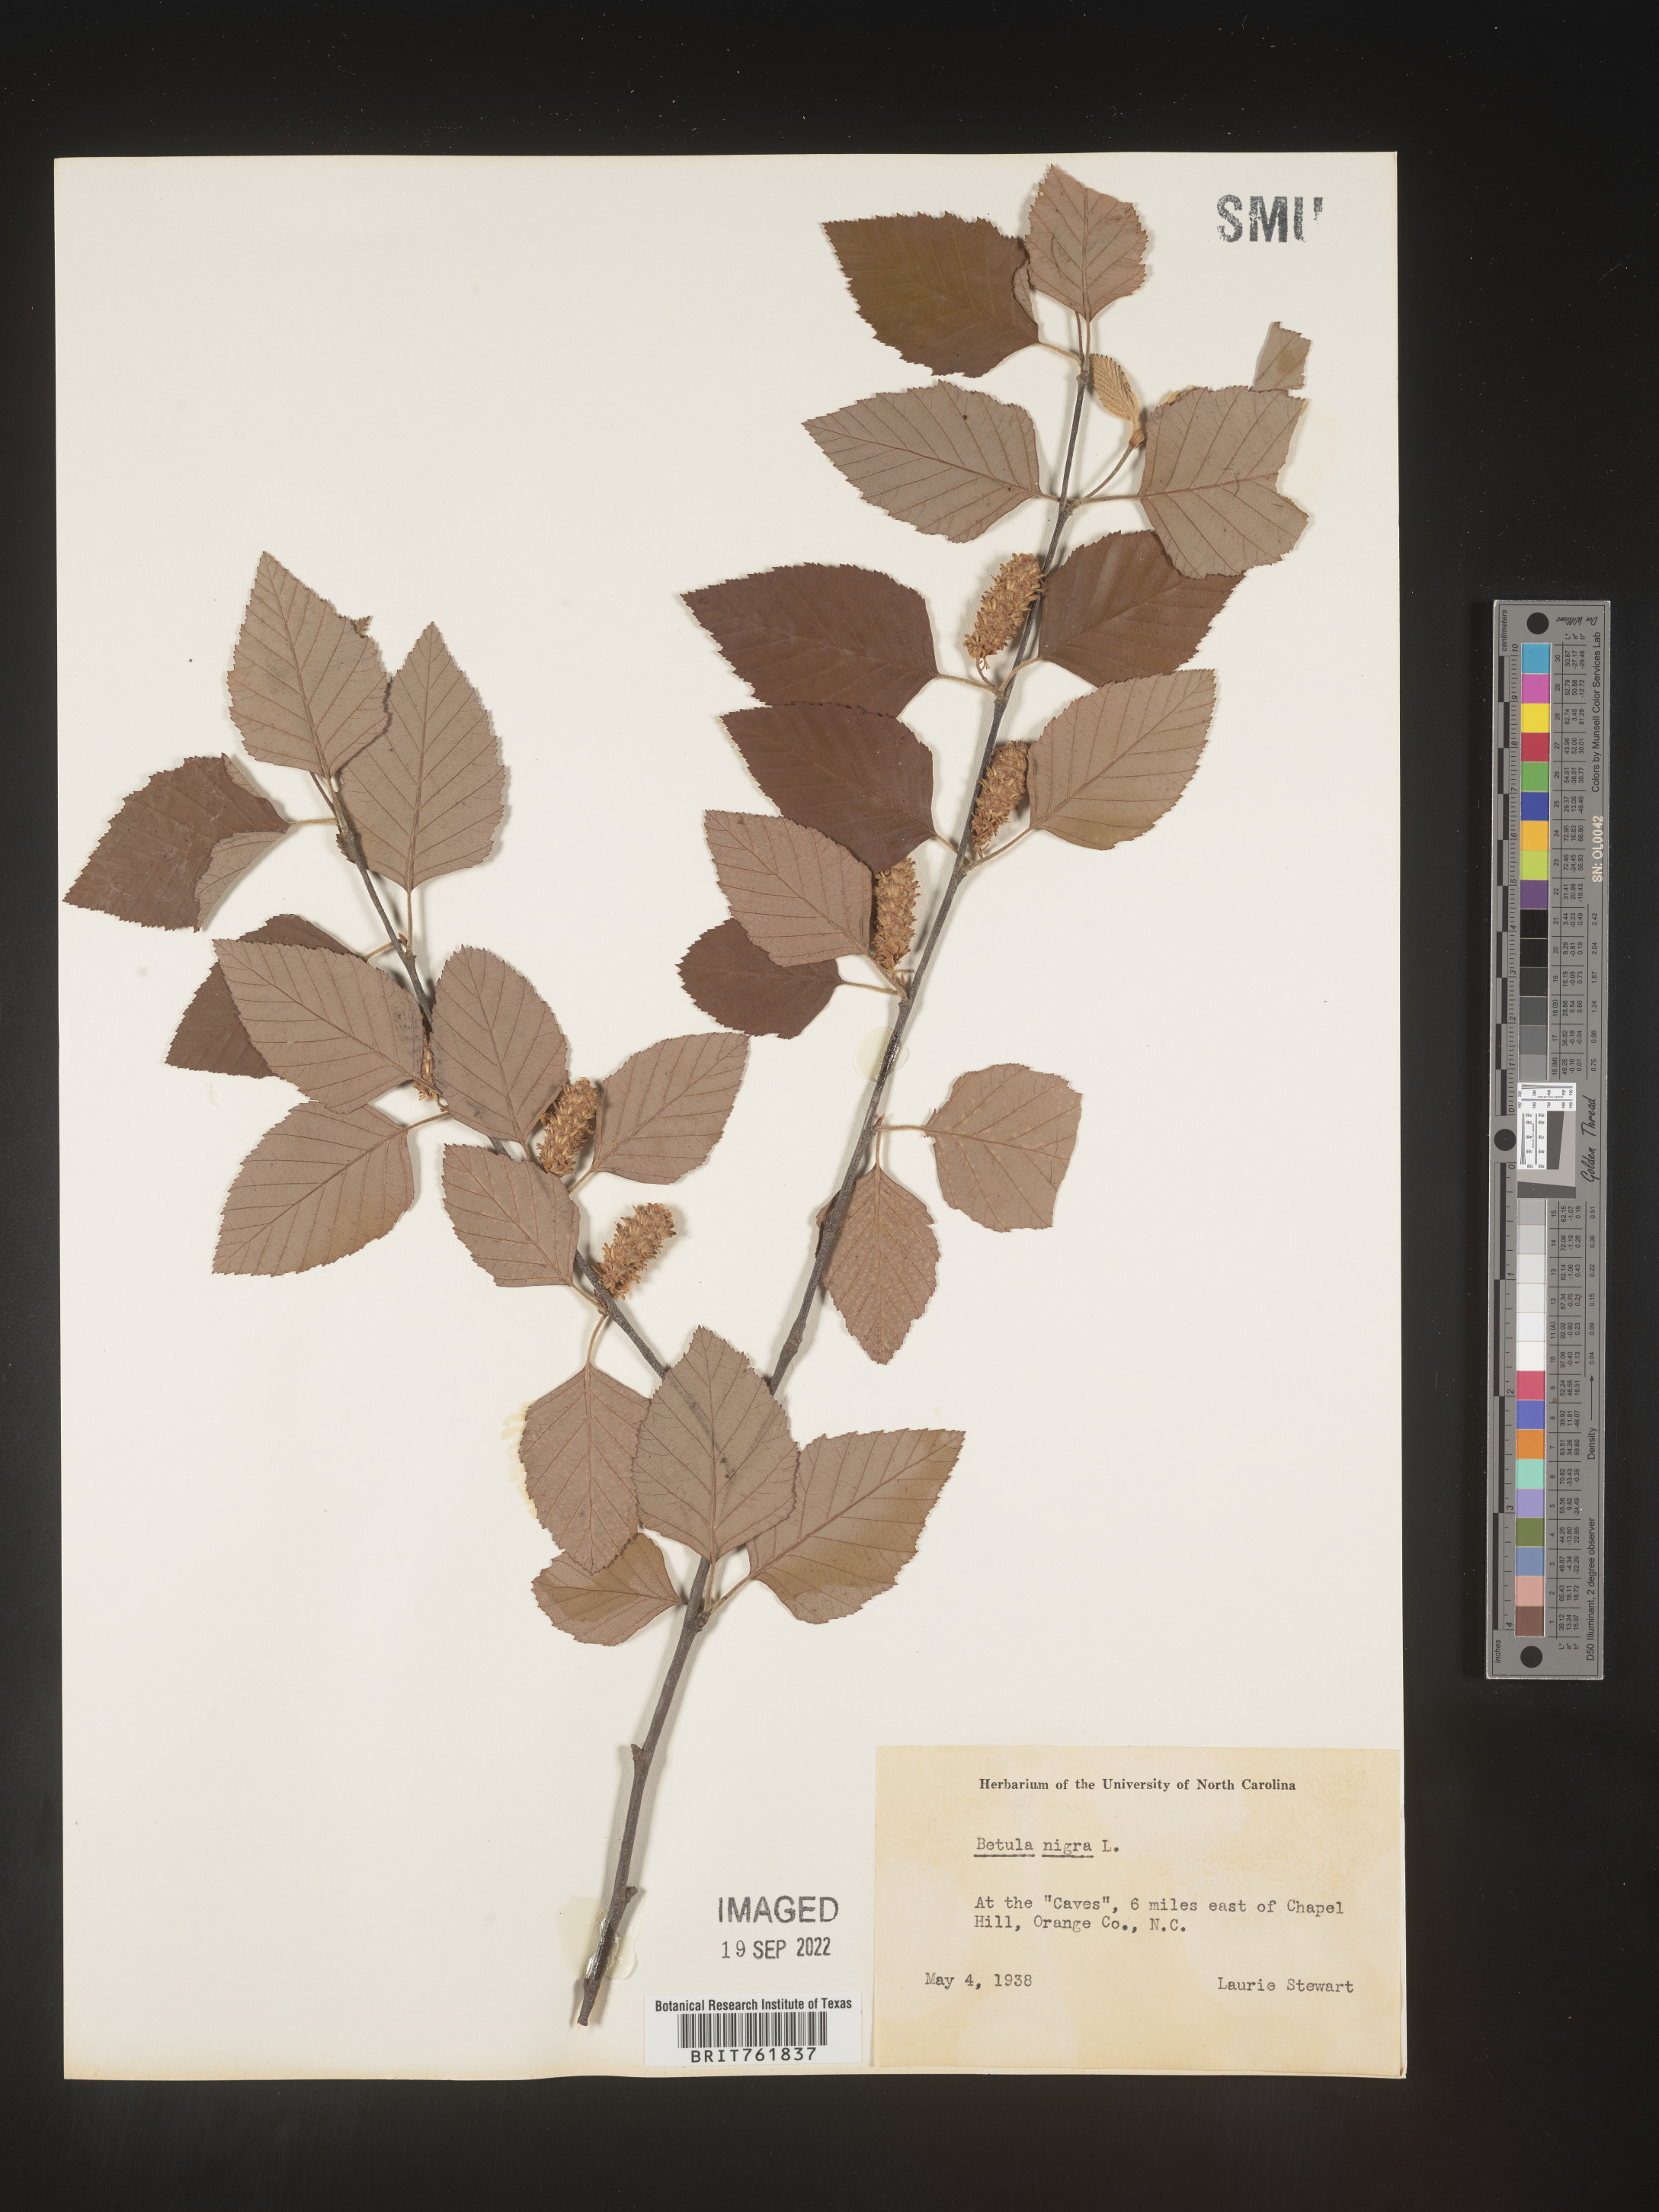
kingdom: Plantae
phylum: Tracheophyta
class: Magnoliopsida
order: Fagales
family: Betulaceae
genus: Betula
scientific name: Betula nigra
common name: Black birch
